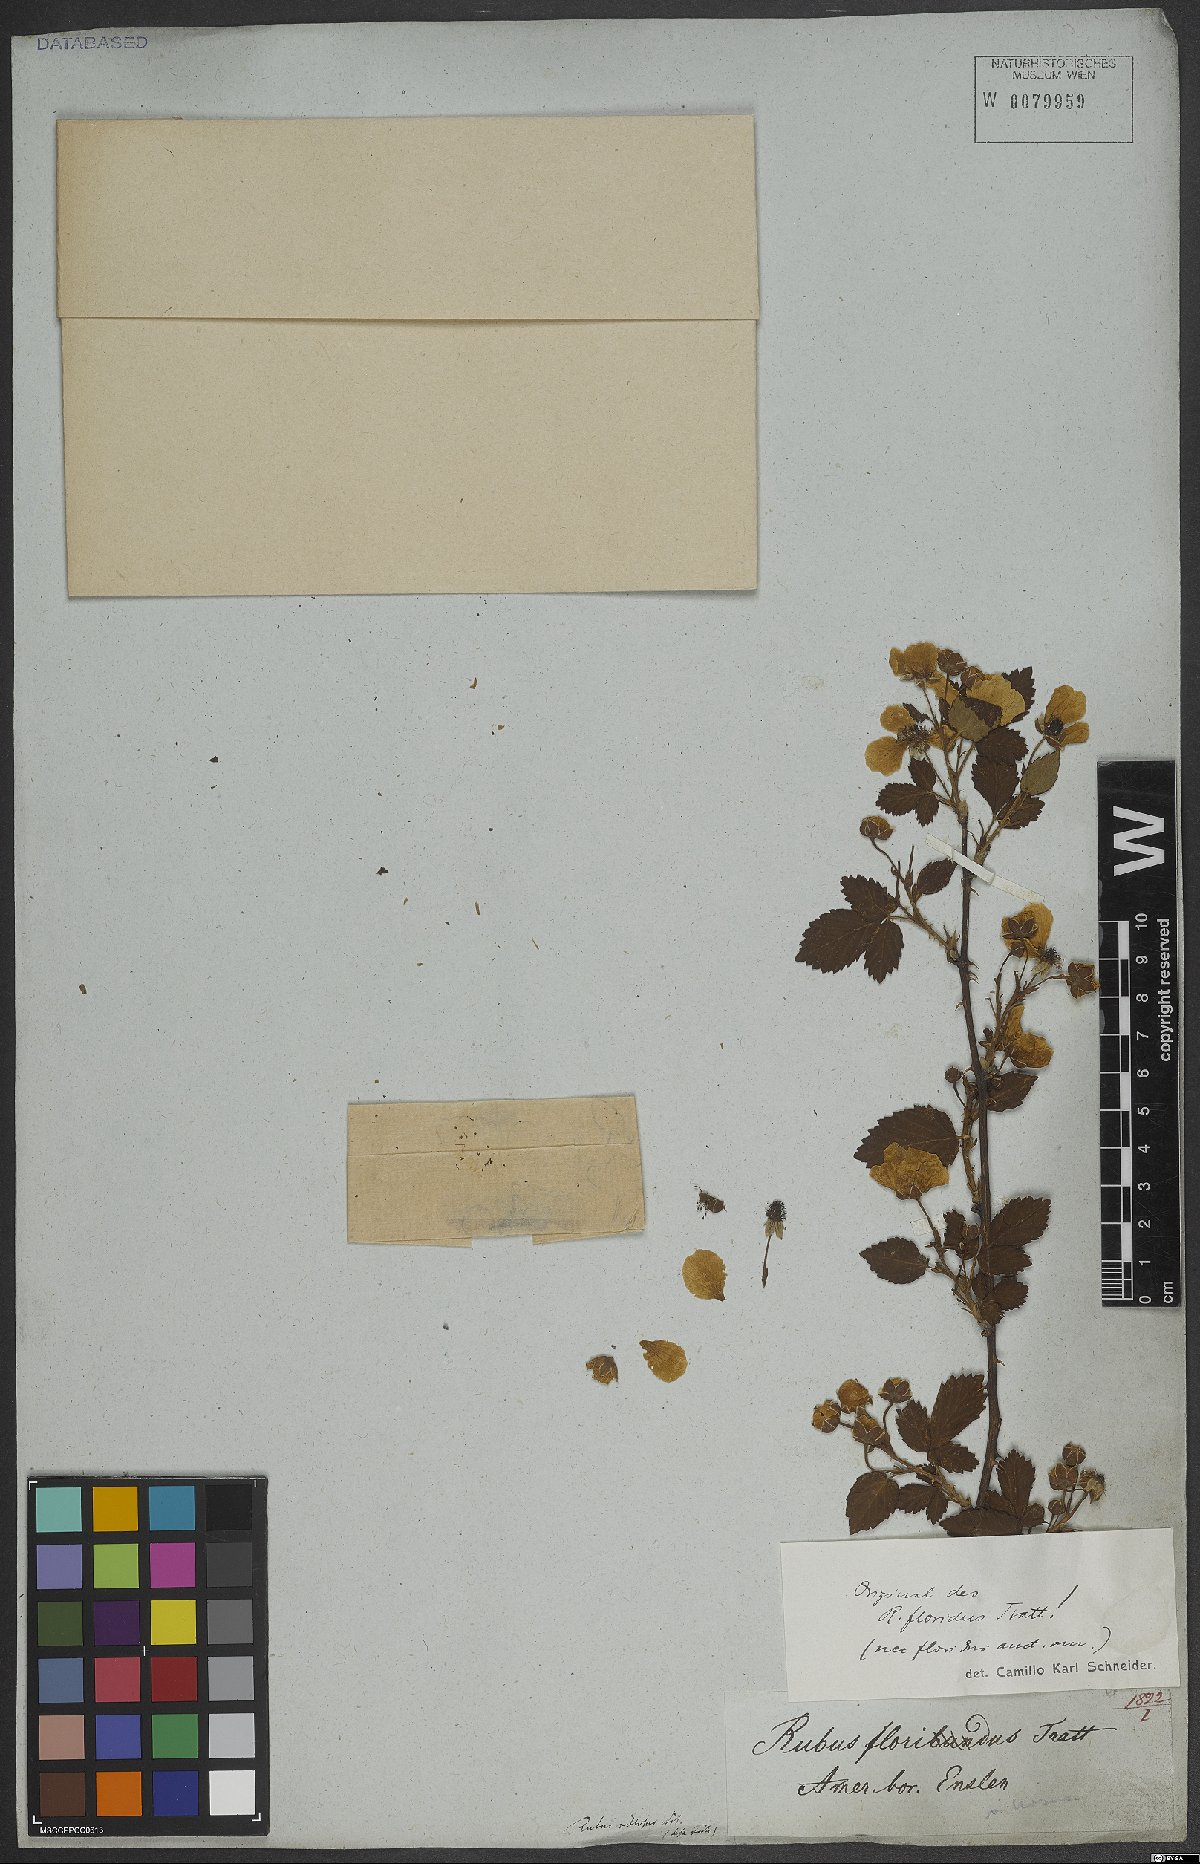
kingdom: Plantae
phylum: Tracheophyta
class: Magnoliopsida
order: Rosales
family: Rosaceae
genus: Rubus
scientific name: Rubus argutus
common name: Sawtooth blackberry
